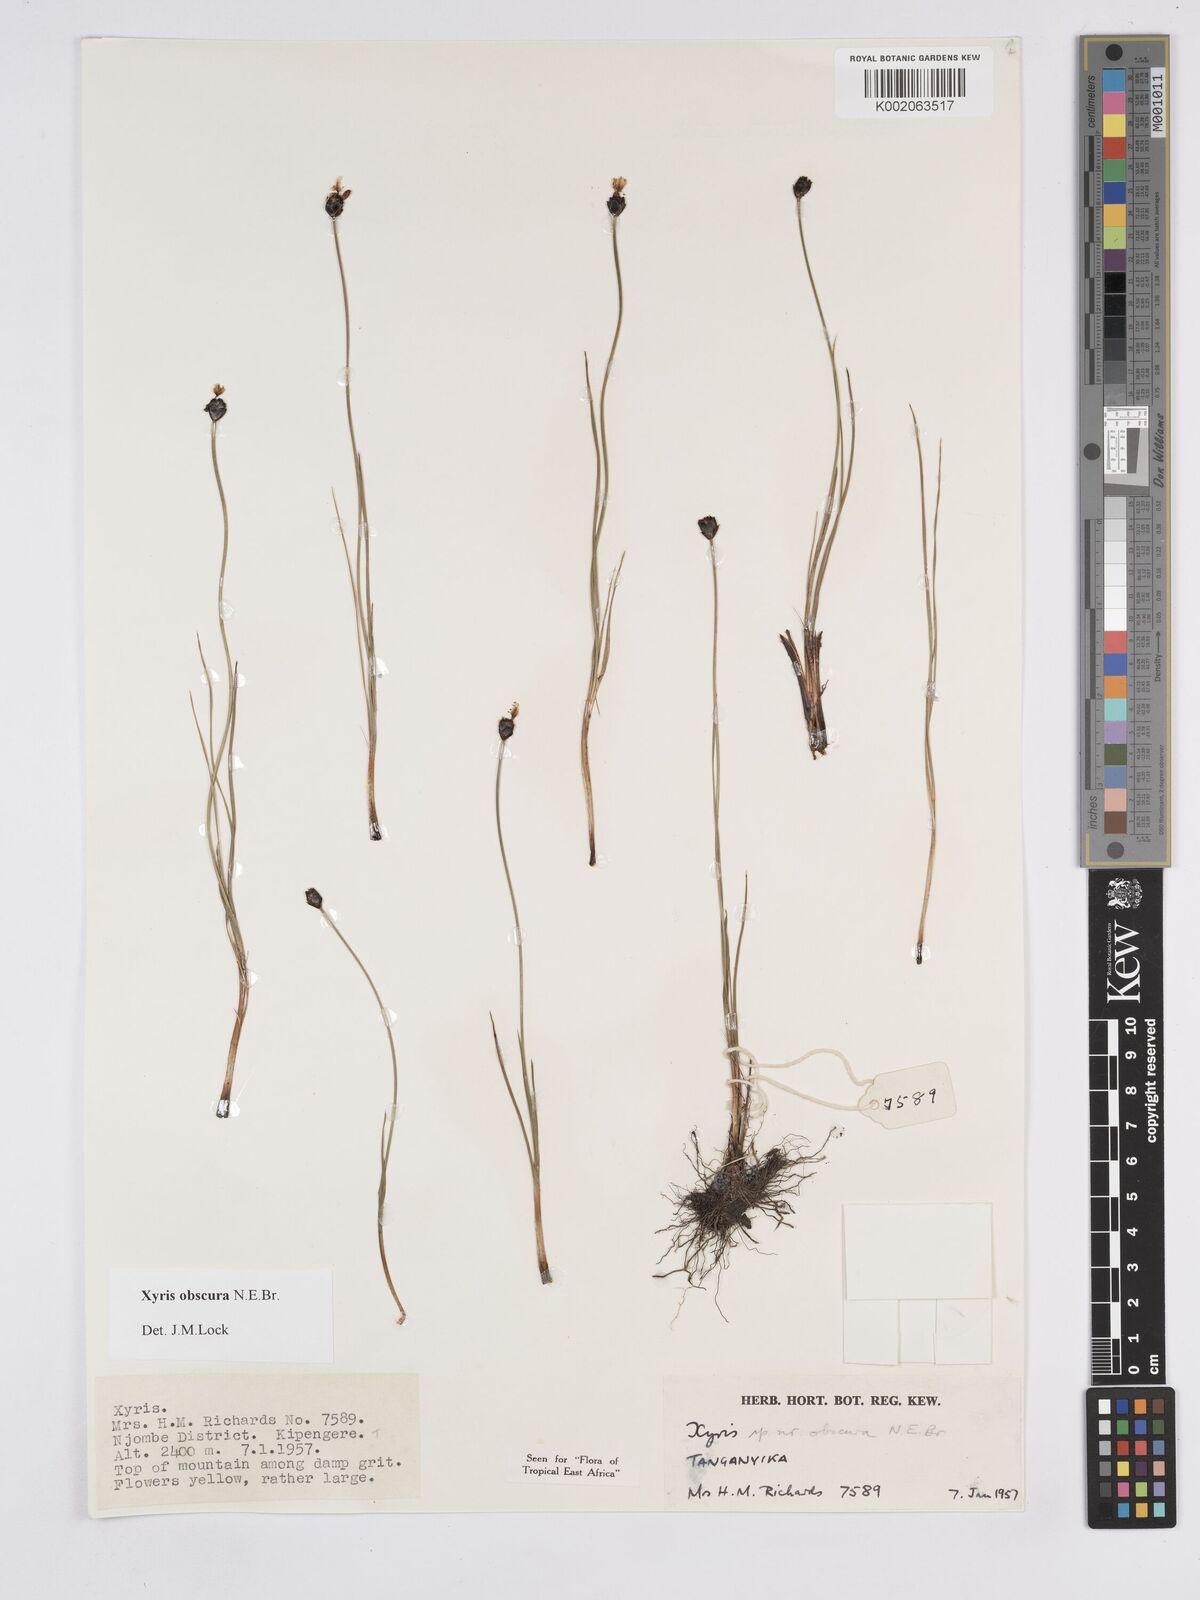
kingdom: Plantae
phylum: Tracheophyta
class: Liliopsida
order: Poales
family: Xyridaceae
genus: Xyris
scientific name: Xyris obscura
